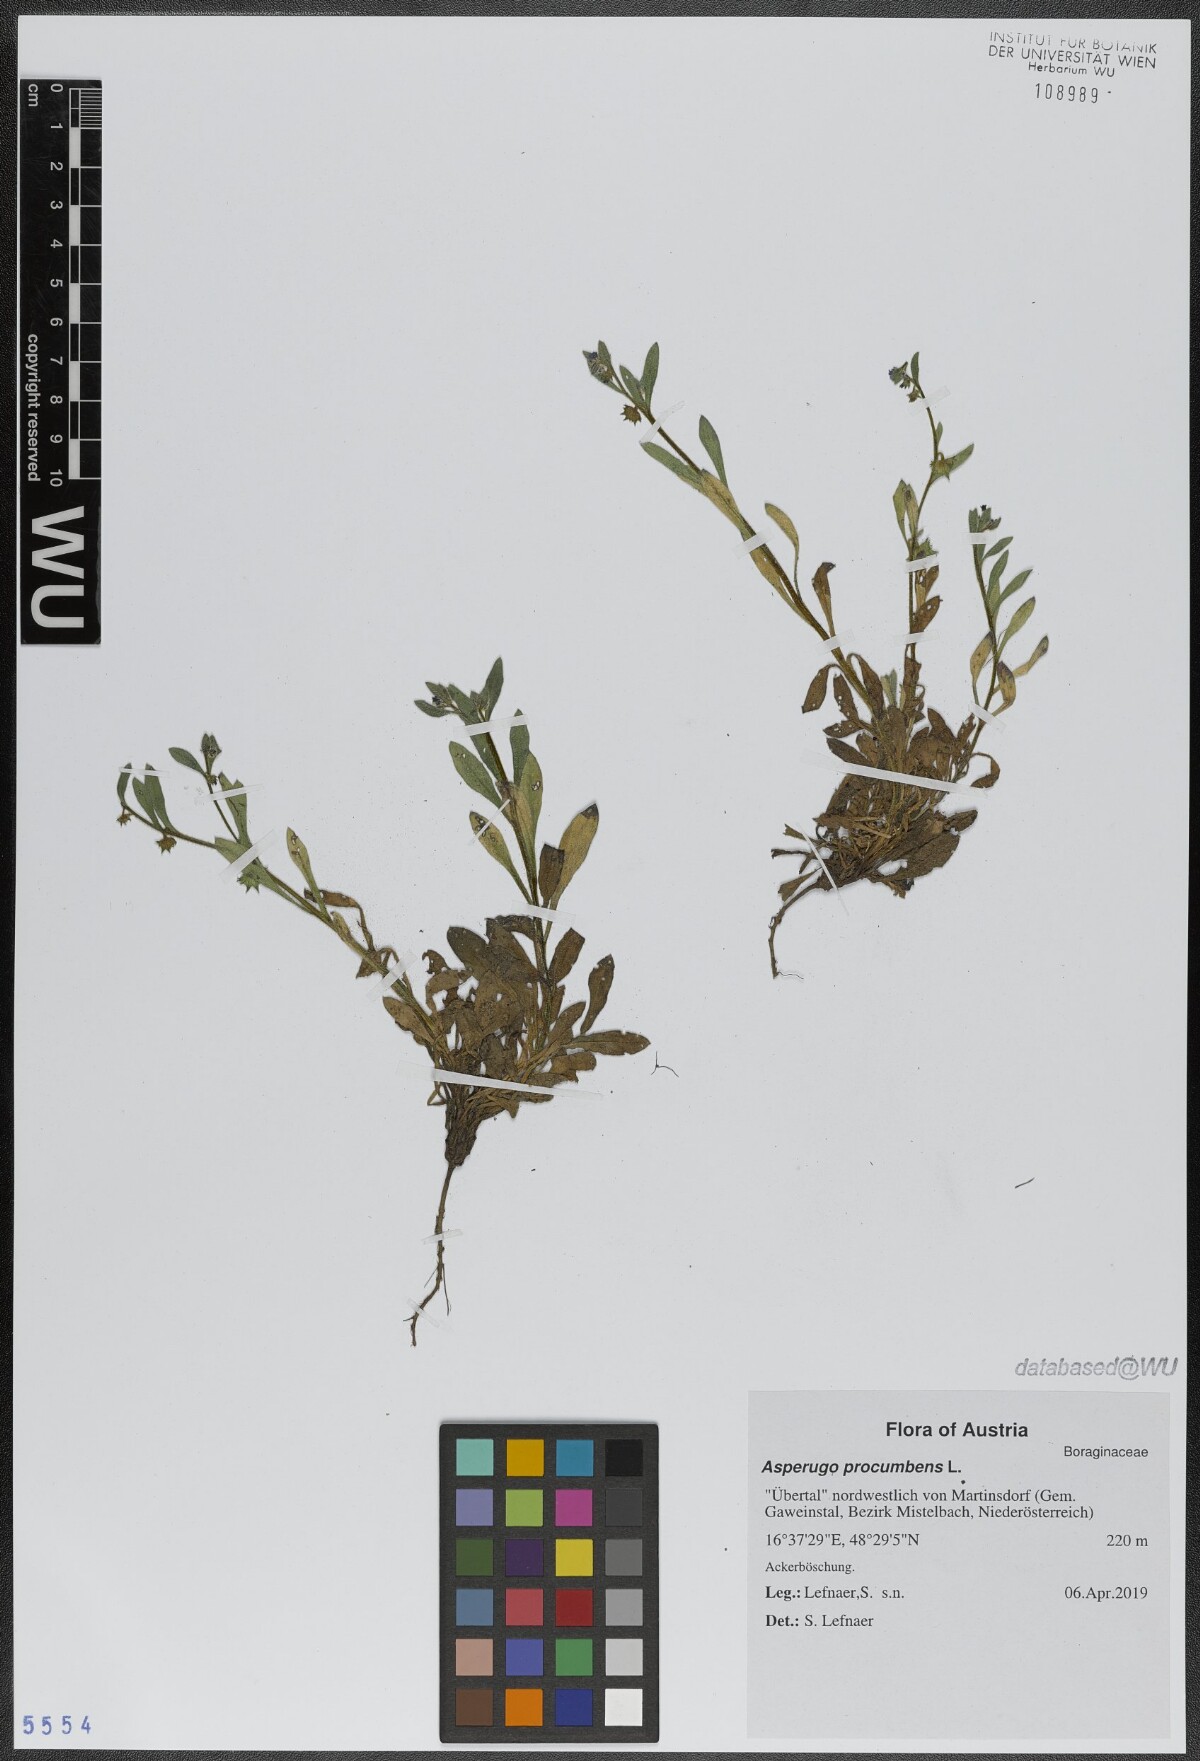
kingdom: Plantae
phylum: Tracheophyta
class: Magnoliopsida
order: Boraginales
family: Boraginaceae
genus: Asperugo
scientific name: Asperugo procumbens
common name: Madwort
